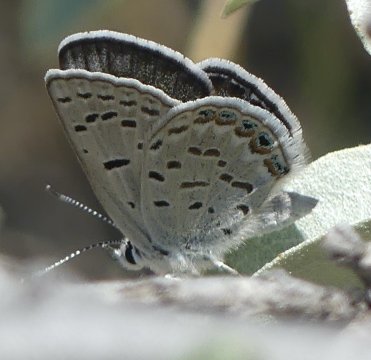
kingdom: Animalia
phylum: Arthropoda
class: Insecta
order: Lepidoptera
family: Lycaenidae
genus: Plebejus
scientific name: Plebejus shasta
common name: Shasta Blue
